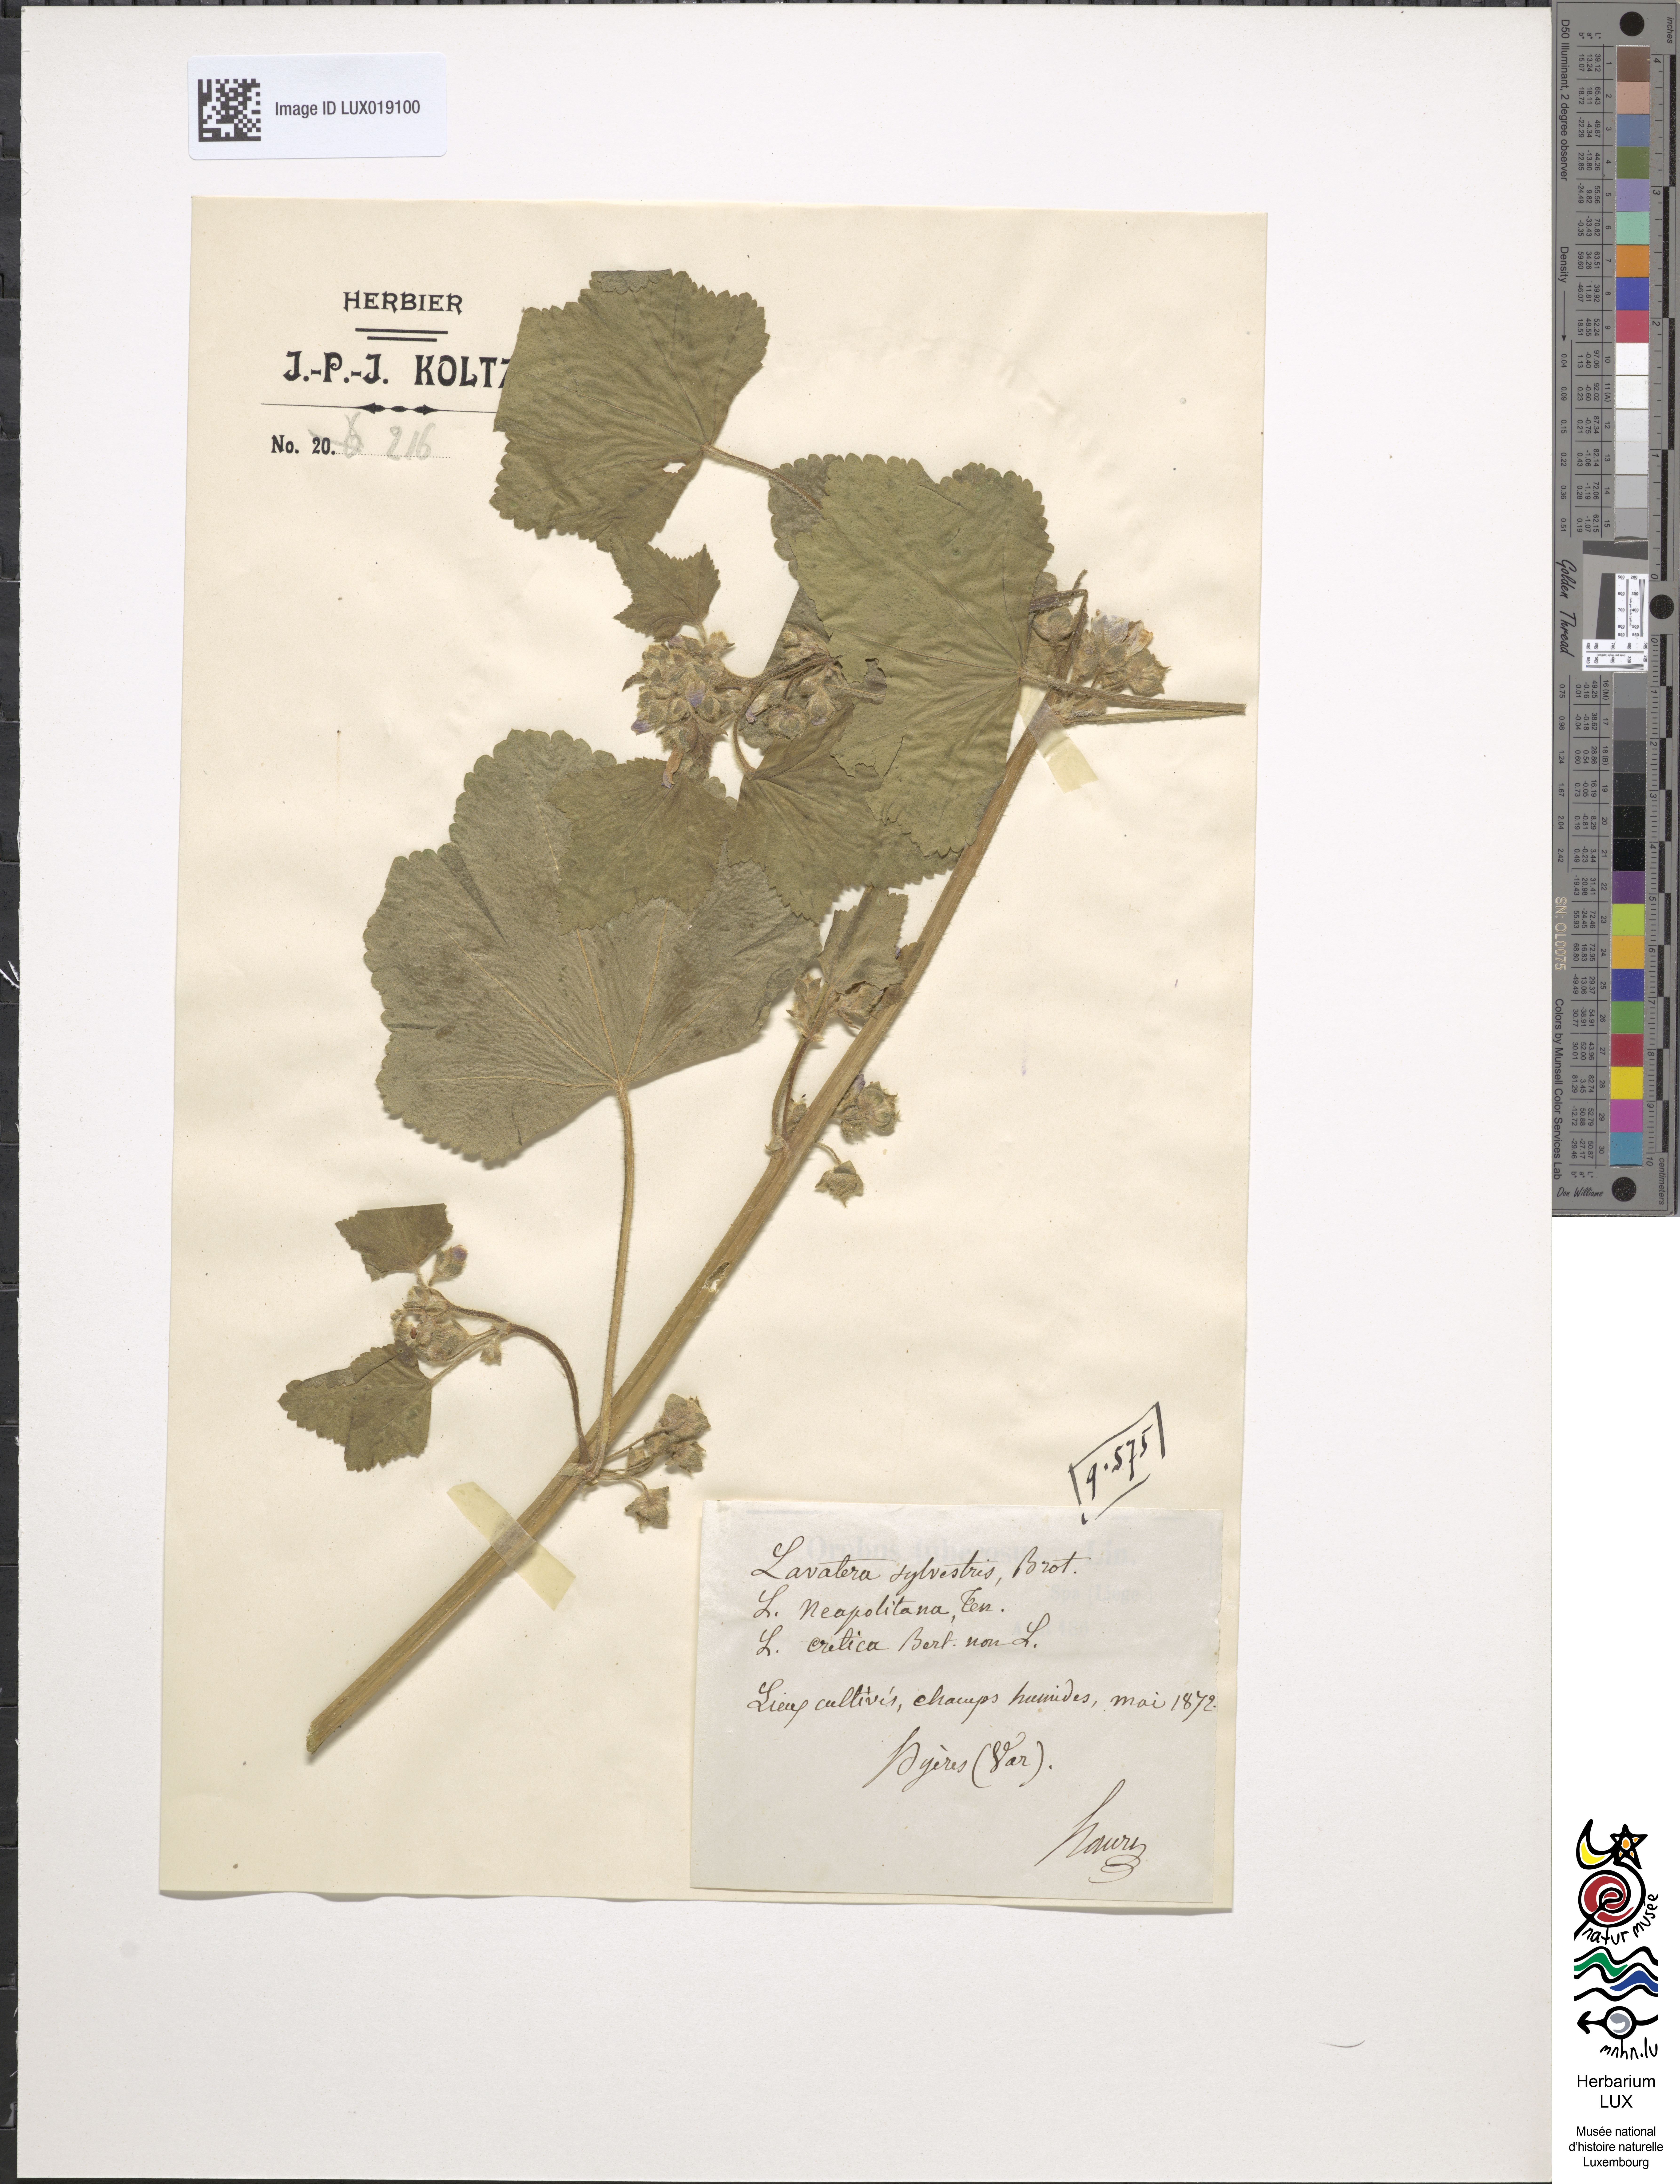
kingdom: Plantae
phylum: Tracheophyta
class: Magnoliopsida
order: Malvales
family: Malvaceae
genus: Malva
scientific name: Malva multiflora
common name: Cheeseweed
